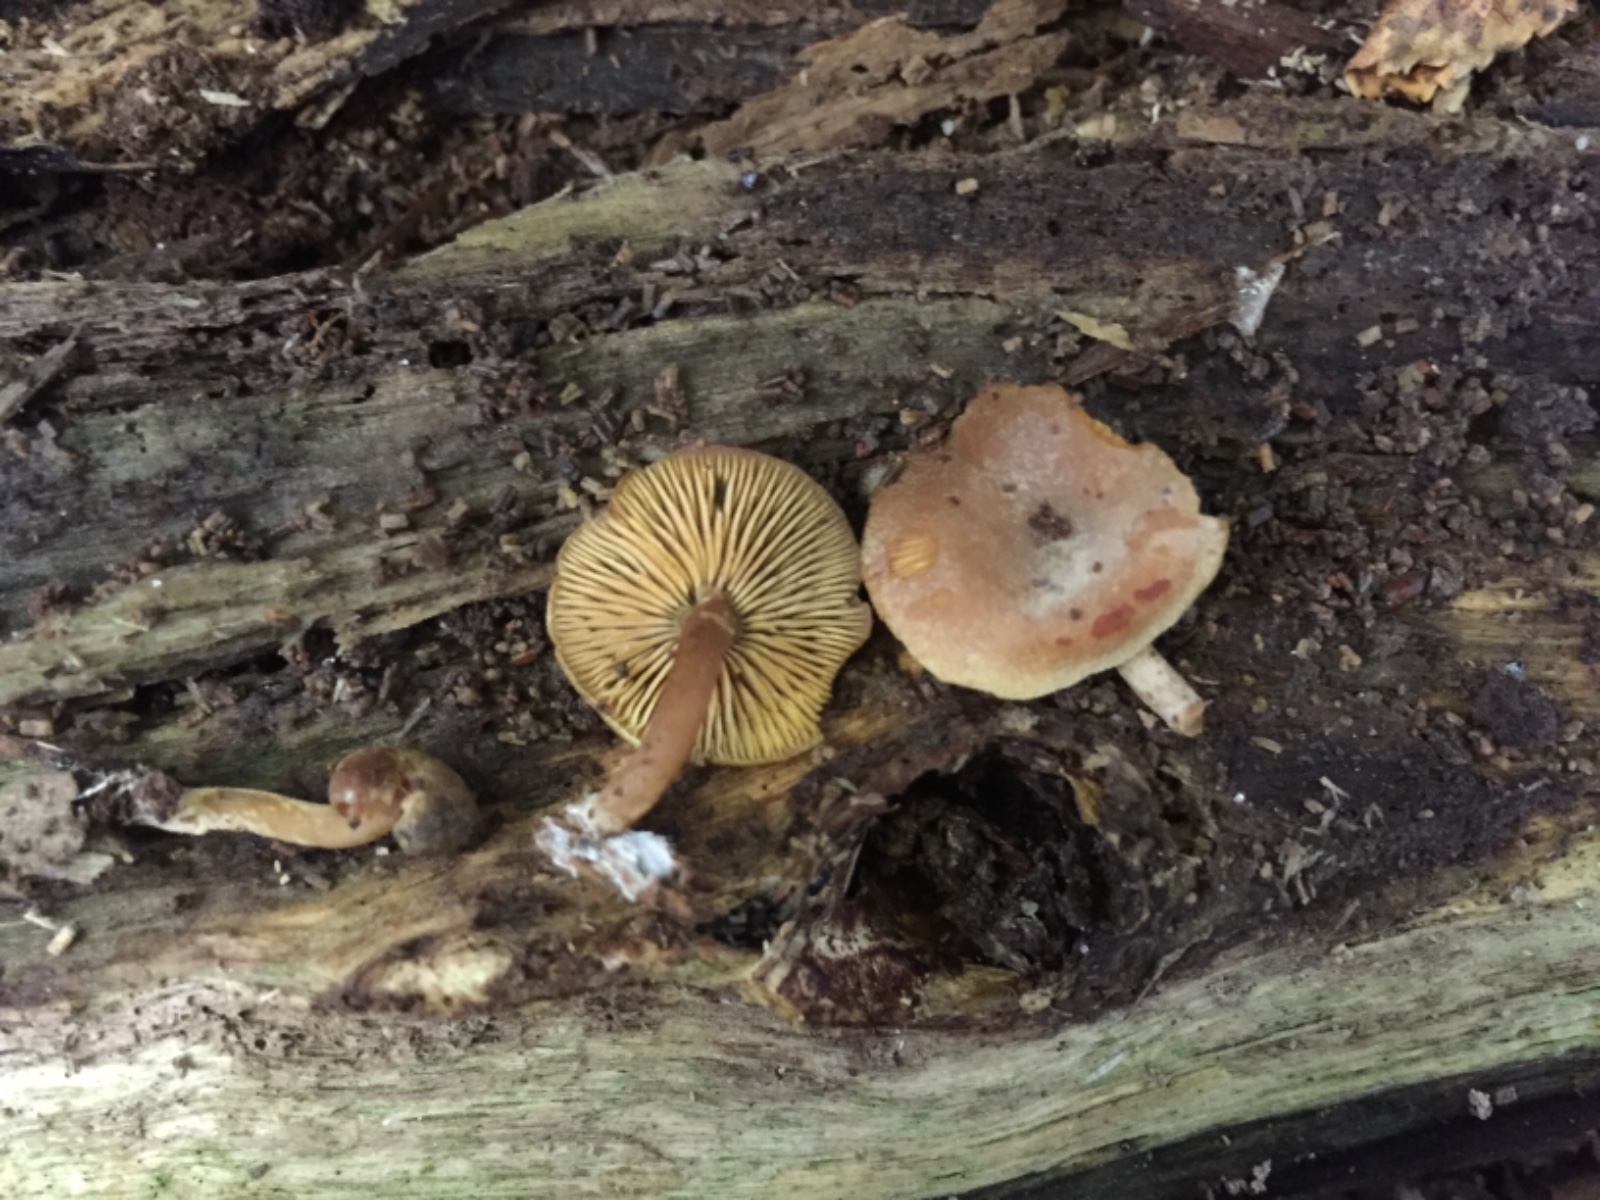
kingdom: Fungi
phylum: Basidiomycota
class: Agaricomycetes
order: Agaricales
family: Callistosporiaceae
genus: Callistosporium
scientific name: Callistosporium pinicola
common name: småsporet ravhat
